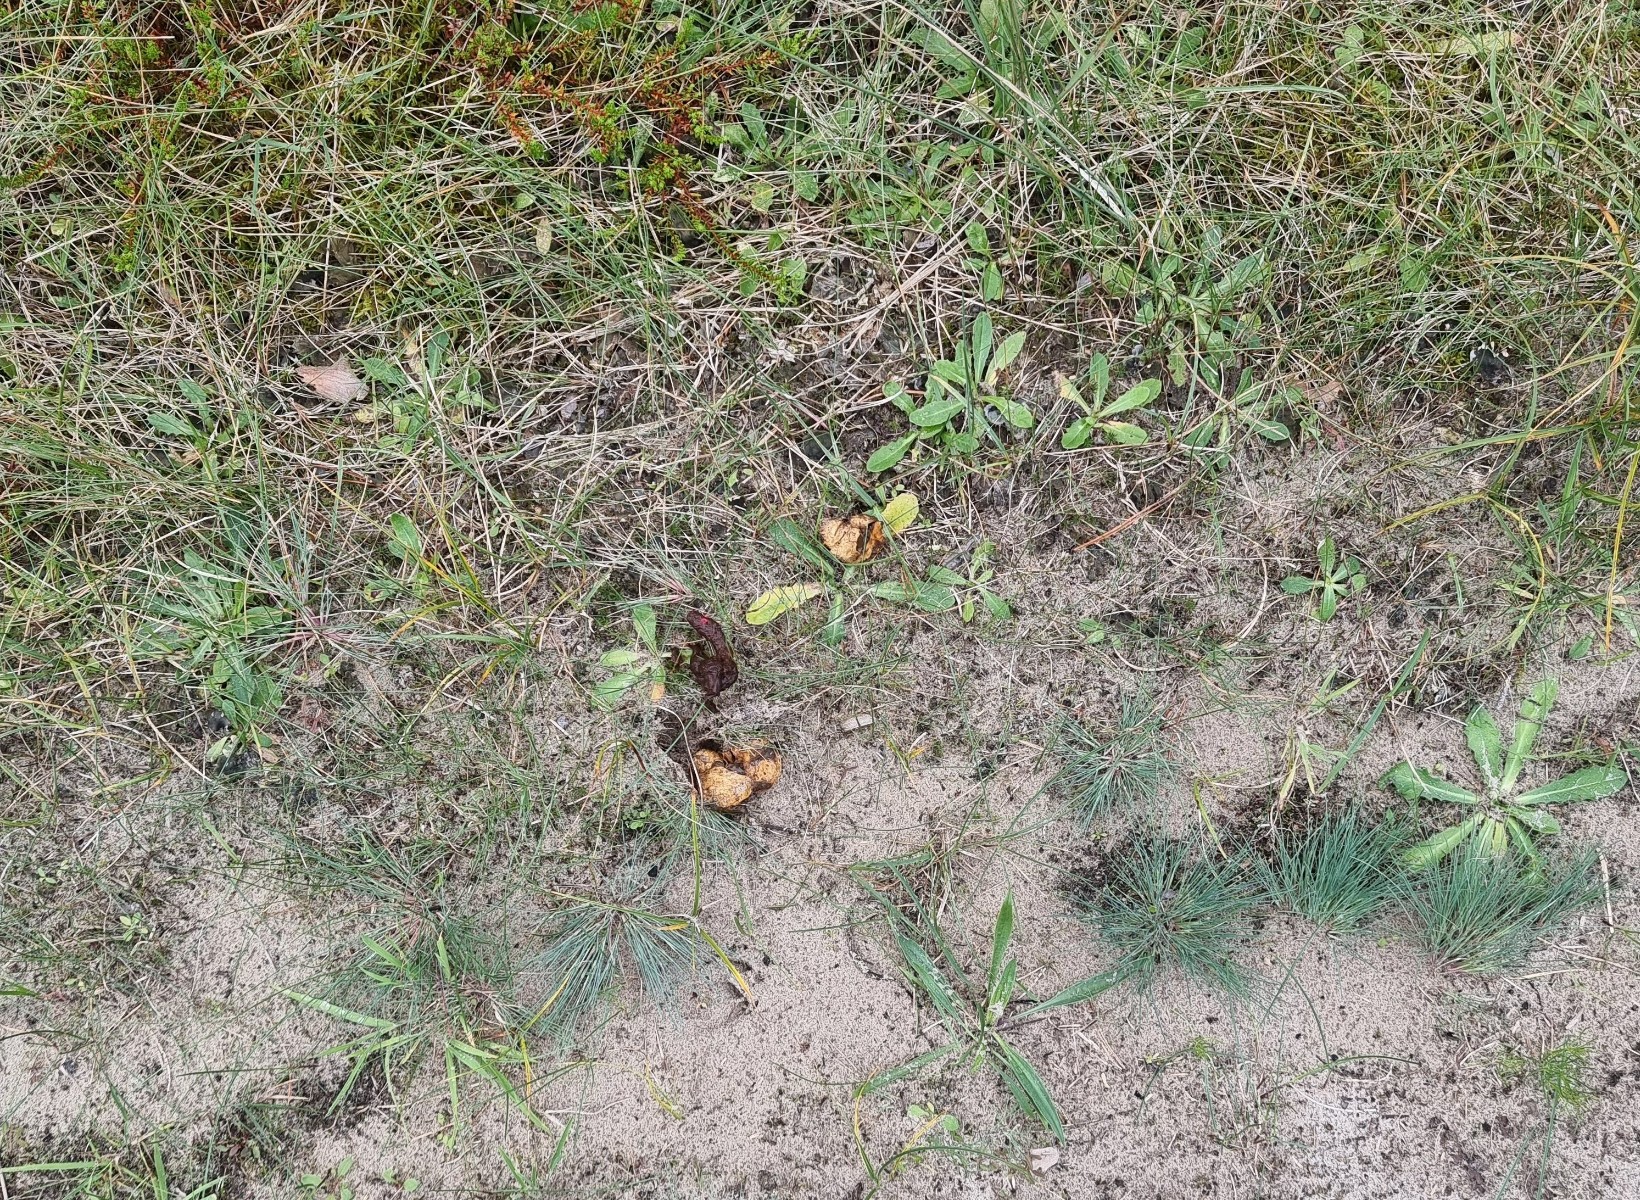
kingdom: Fungi
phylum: Basidiomycota
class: Agaricomycetes
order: Boletales
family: Rhizopogonaceae
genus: Rhizopogon
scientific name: Rhizopogon obtextus
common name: gul skægtrøffel
